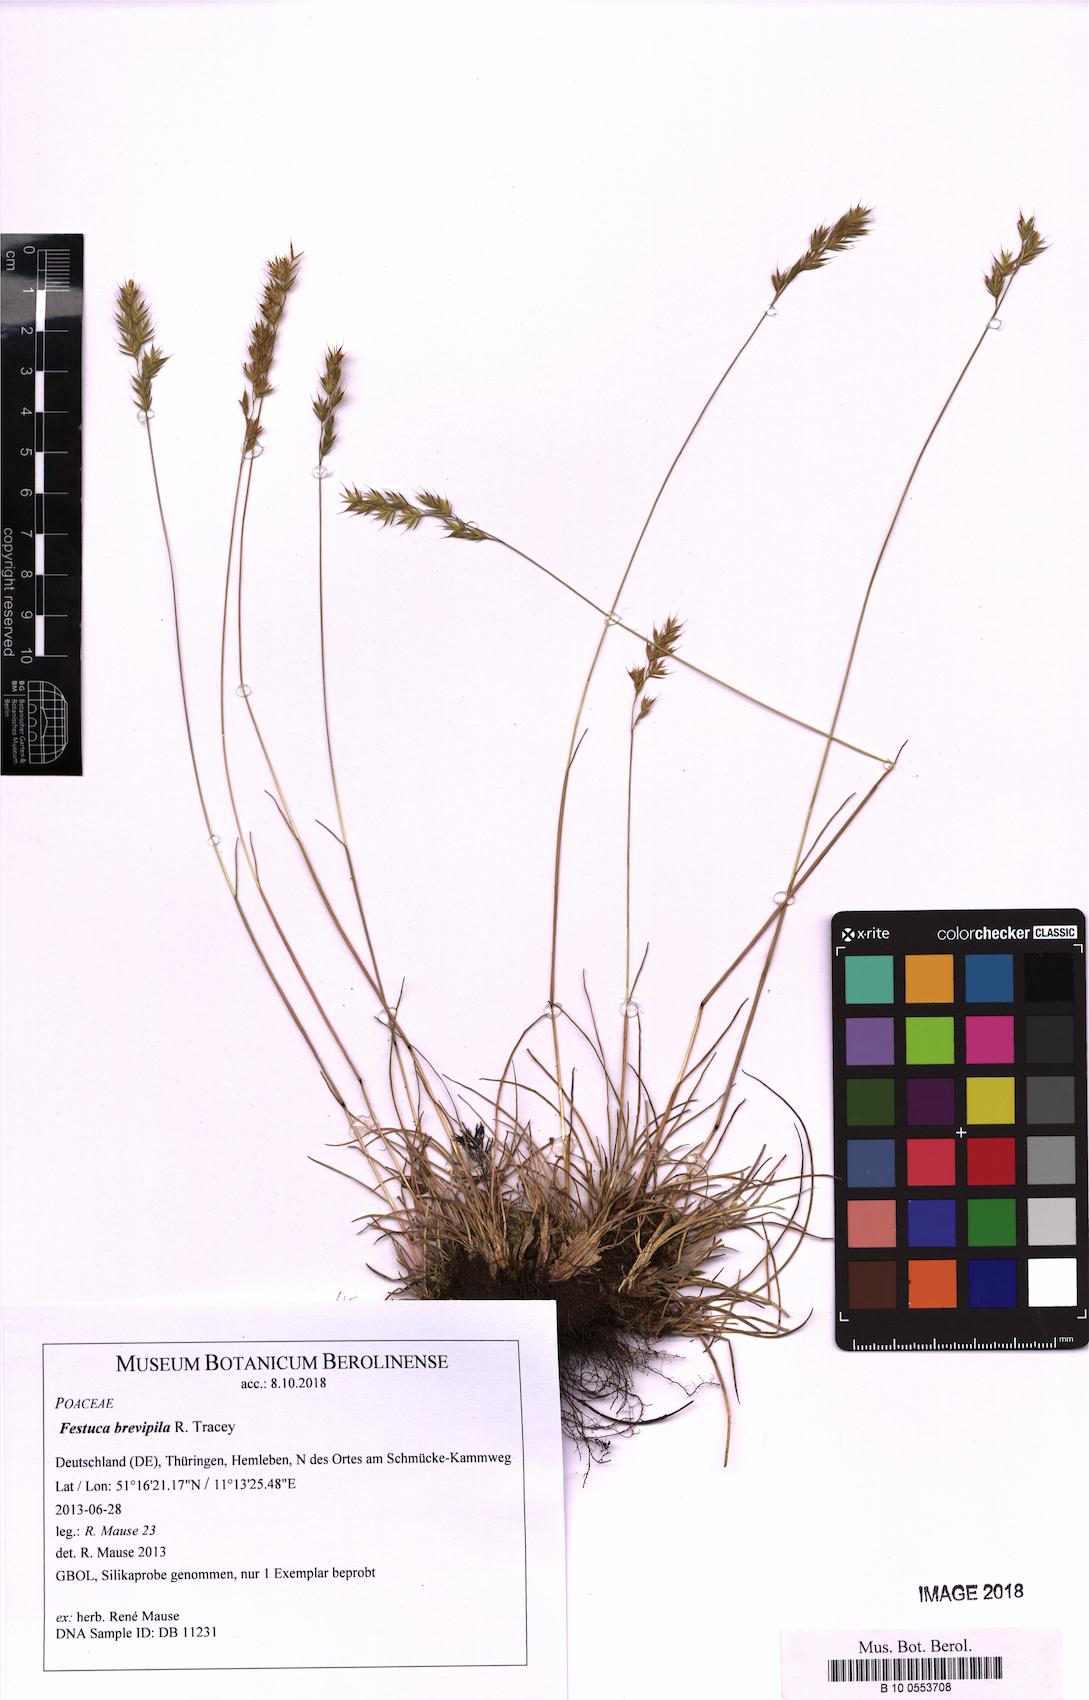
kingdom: Plantae
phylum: Tracheophyta
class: Liliopsida
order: Poales
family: Poaceae
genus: Festuca
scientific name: Festuca trachyphylla
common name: Hard fescue
